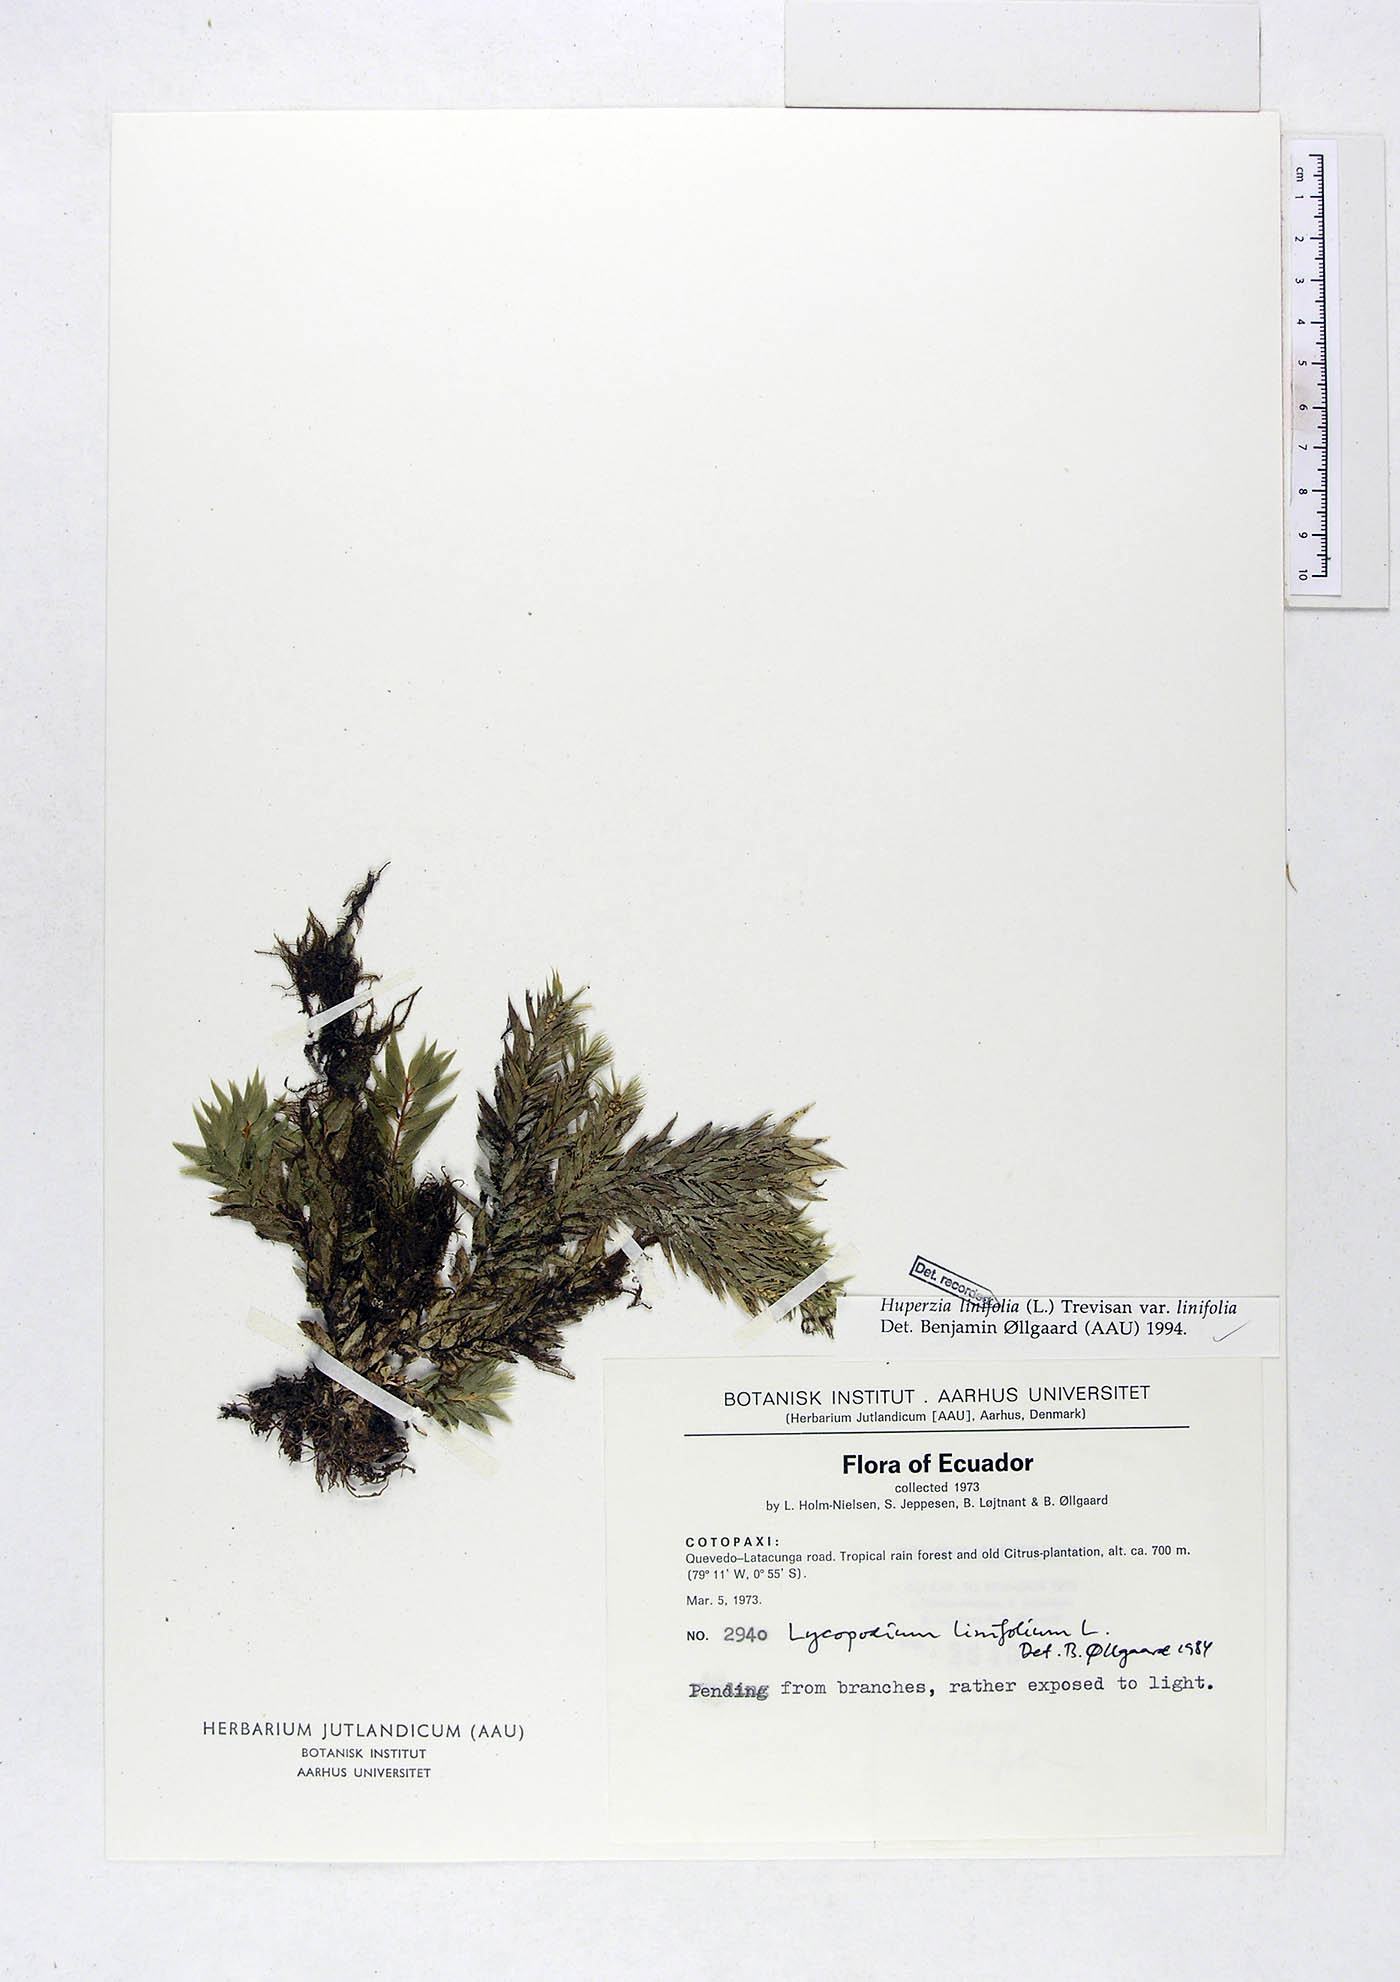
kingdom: Plantae
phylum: Tracheophyta
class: Lycopodiopsida
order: Lycopodiales
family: Lycopodiaceae
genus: Phlegmariurus
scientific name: Phlegmariurus linifolius
